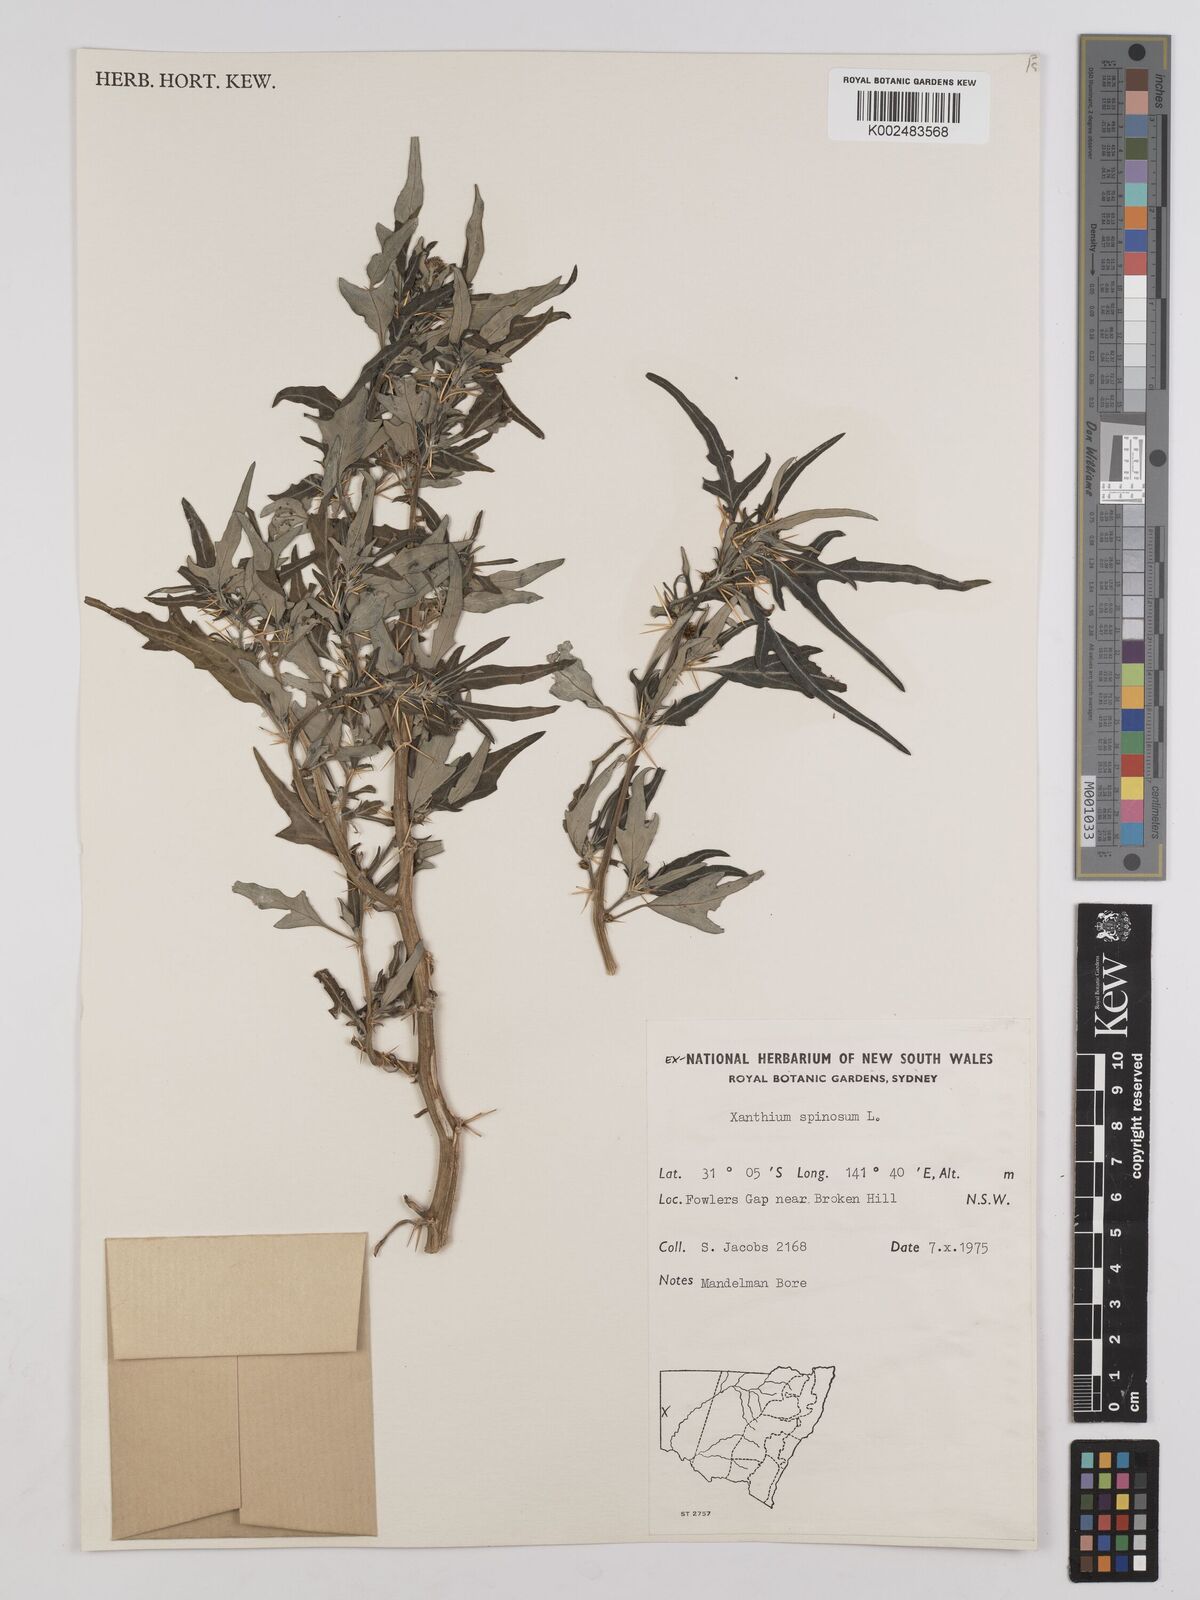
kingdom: Plantae
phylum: Tracheophyta
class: Magnoliopsida
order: Asterales
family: Asteraceae
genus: Xanthium
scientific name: Xanthium spinosum
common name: Spiny cocklebur
